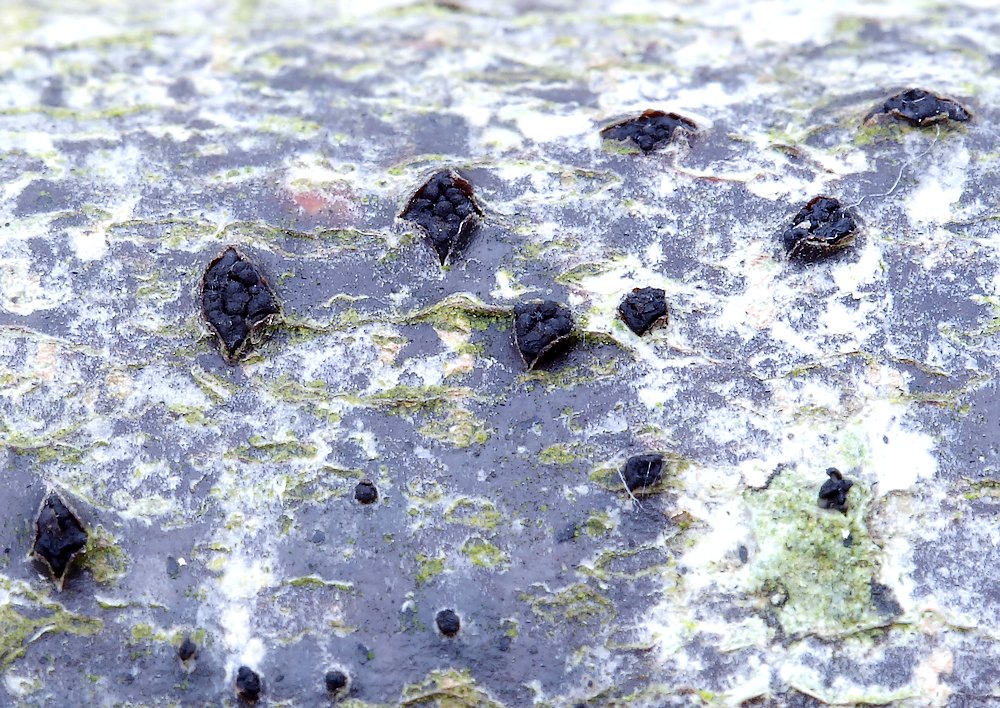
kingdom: Fungi
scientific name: Fungi
